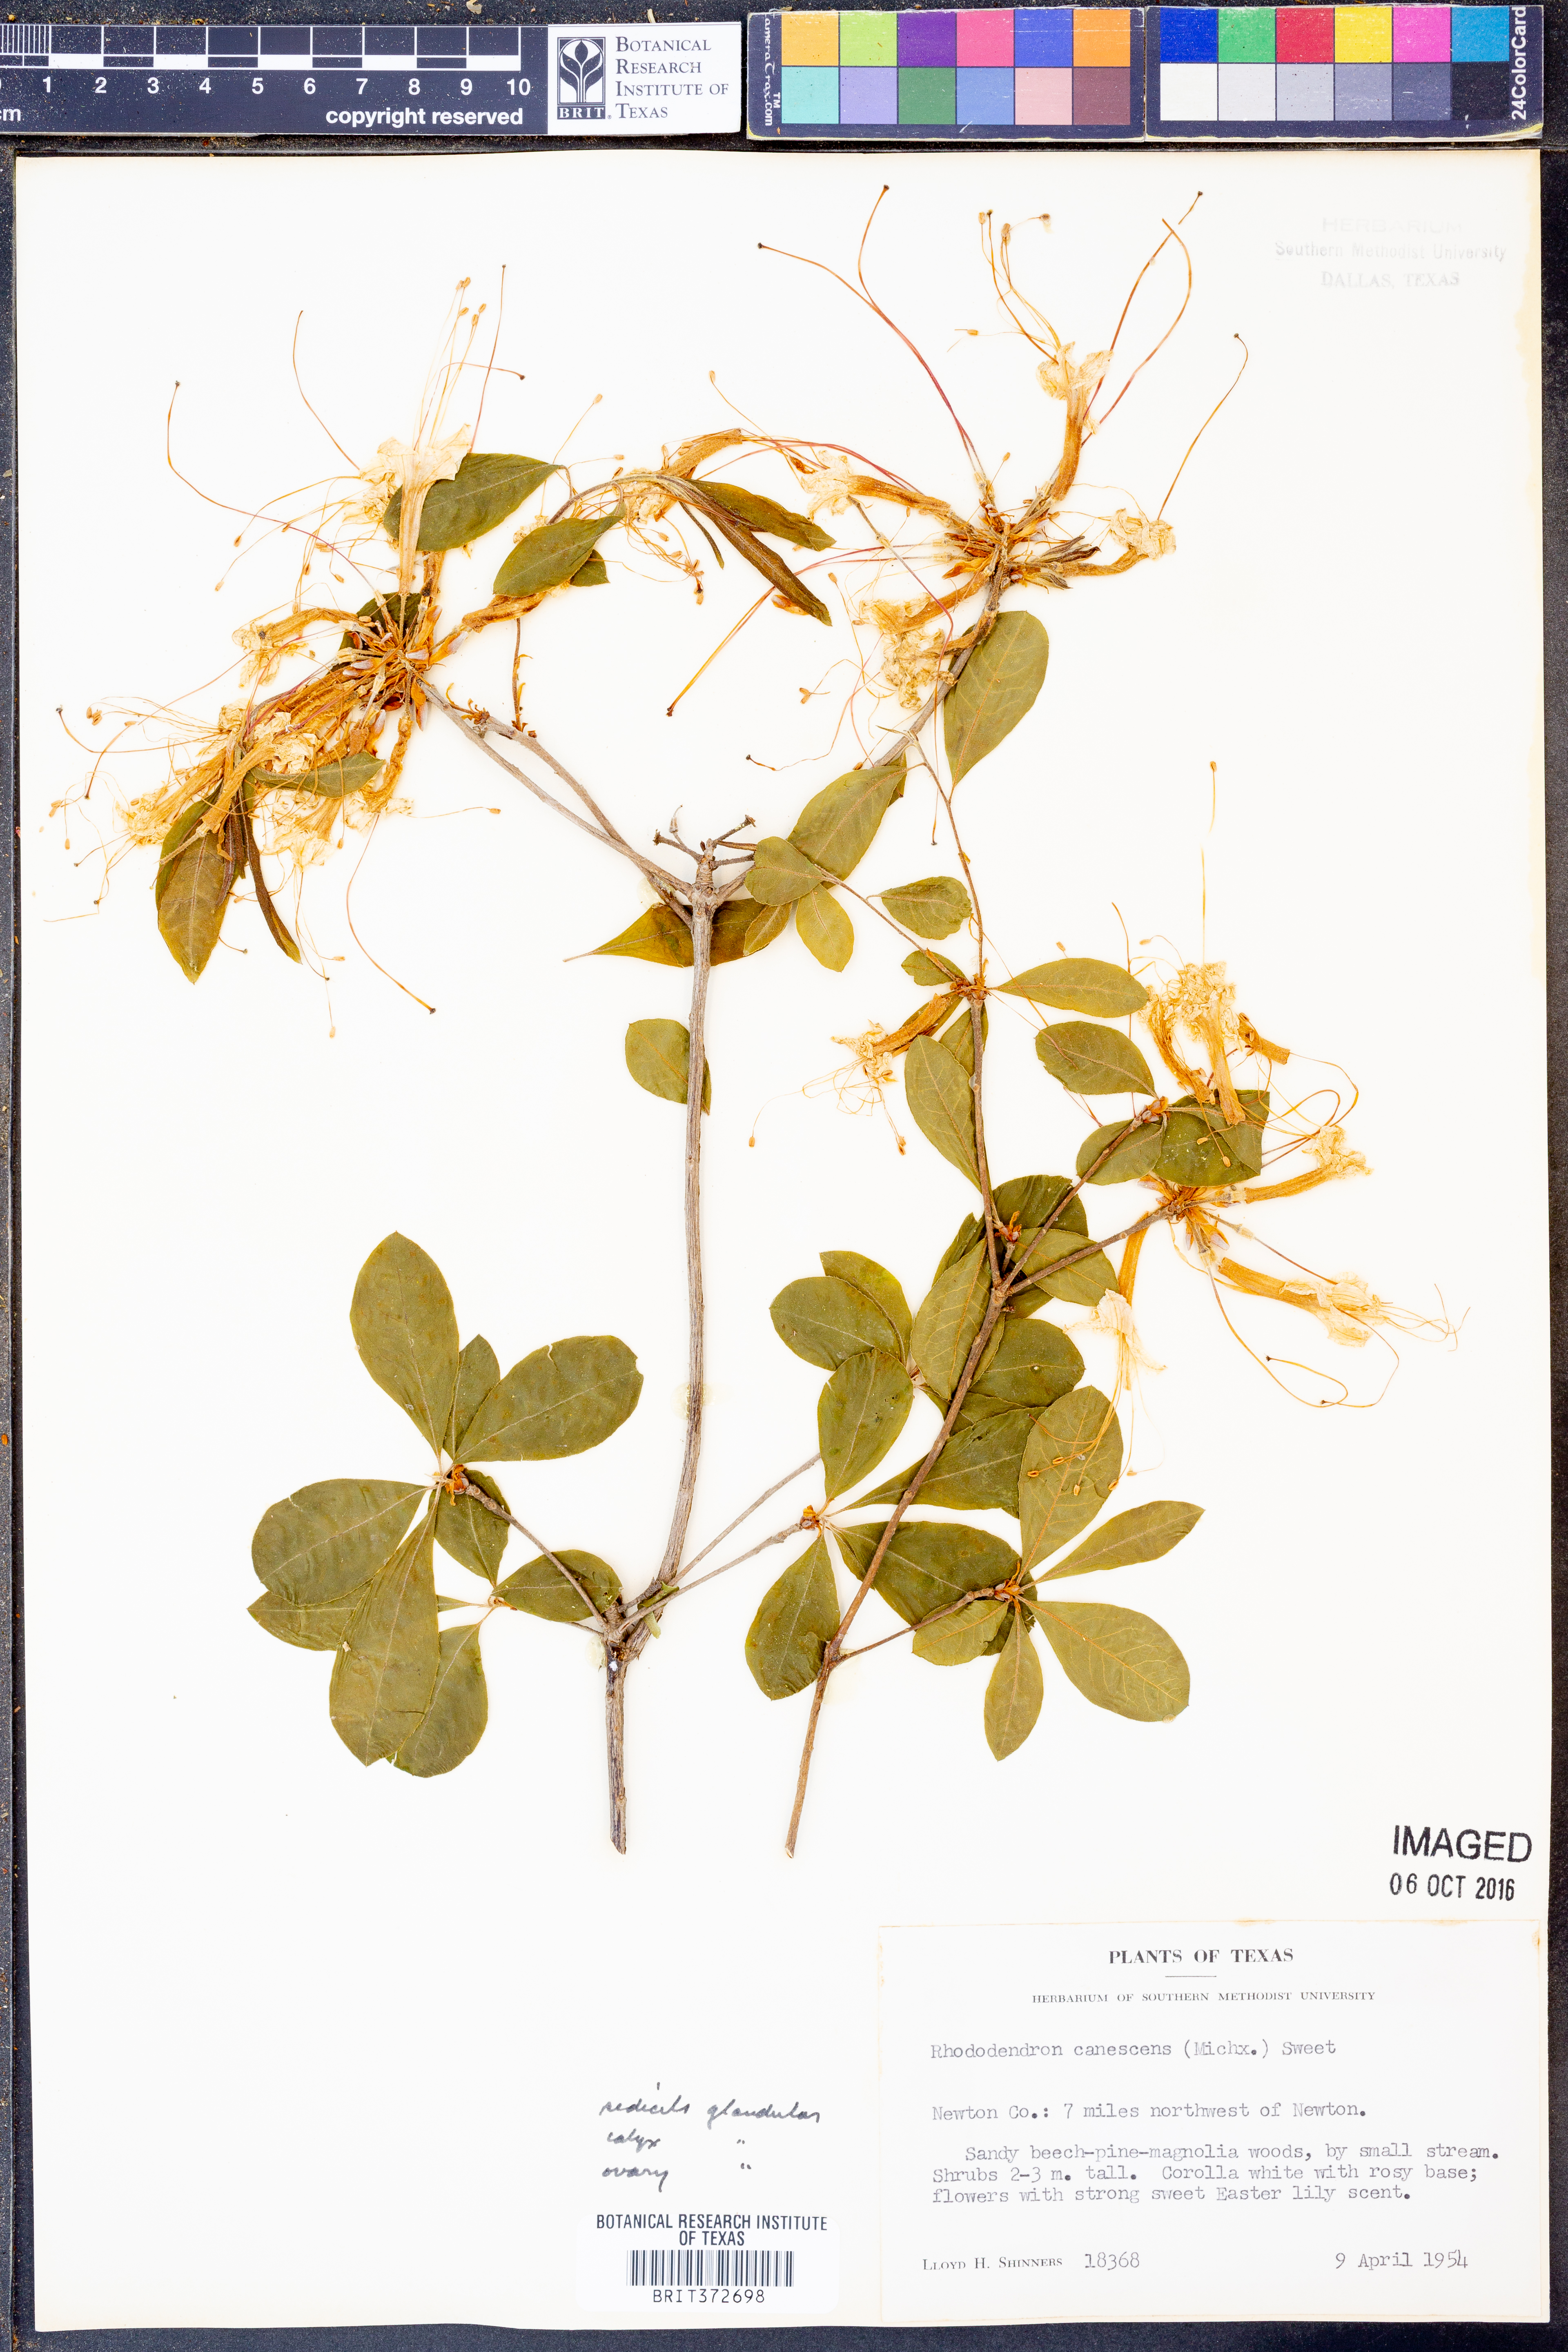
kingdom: Plantae
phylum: Tracheophyta
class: Magnoliopsida
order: Ericales
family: Ericaceae
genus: Rhododendron
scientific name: Rhododendron canescens
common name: Mountain azalea
